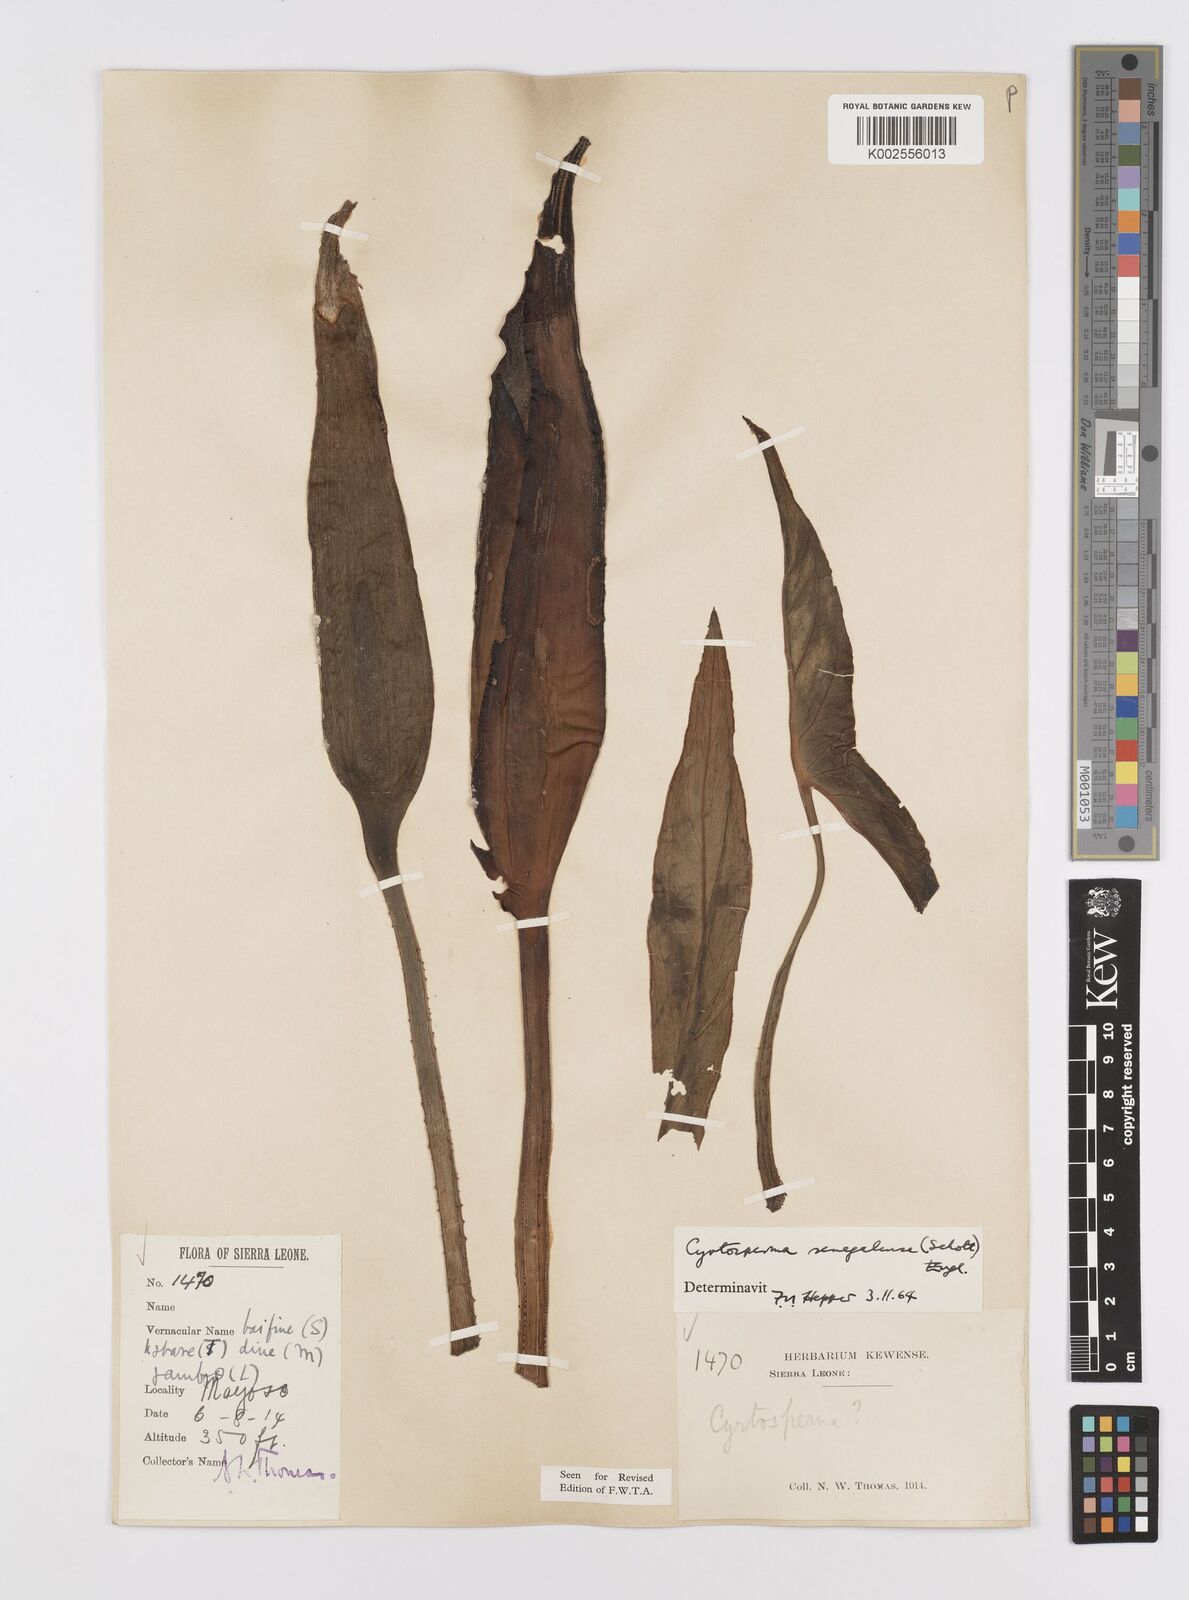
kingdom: Plantae
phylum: Tracheophyta
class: Liliopsida
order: Alismatales
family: Araceae
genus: Lasimorpha
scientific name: Lasimorpha senegalensis
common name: Swamp arum
